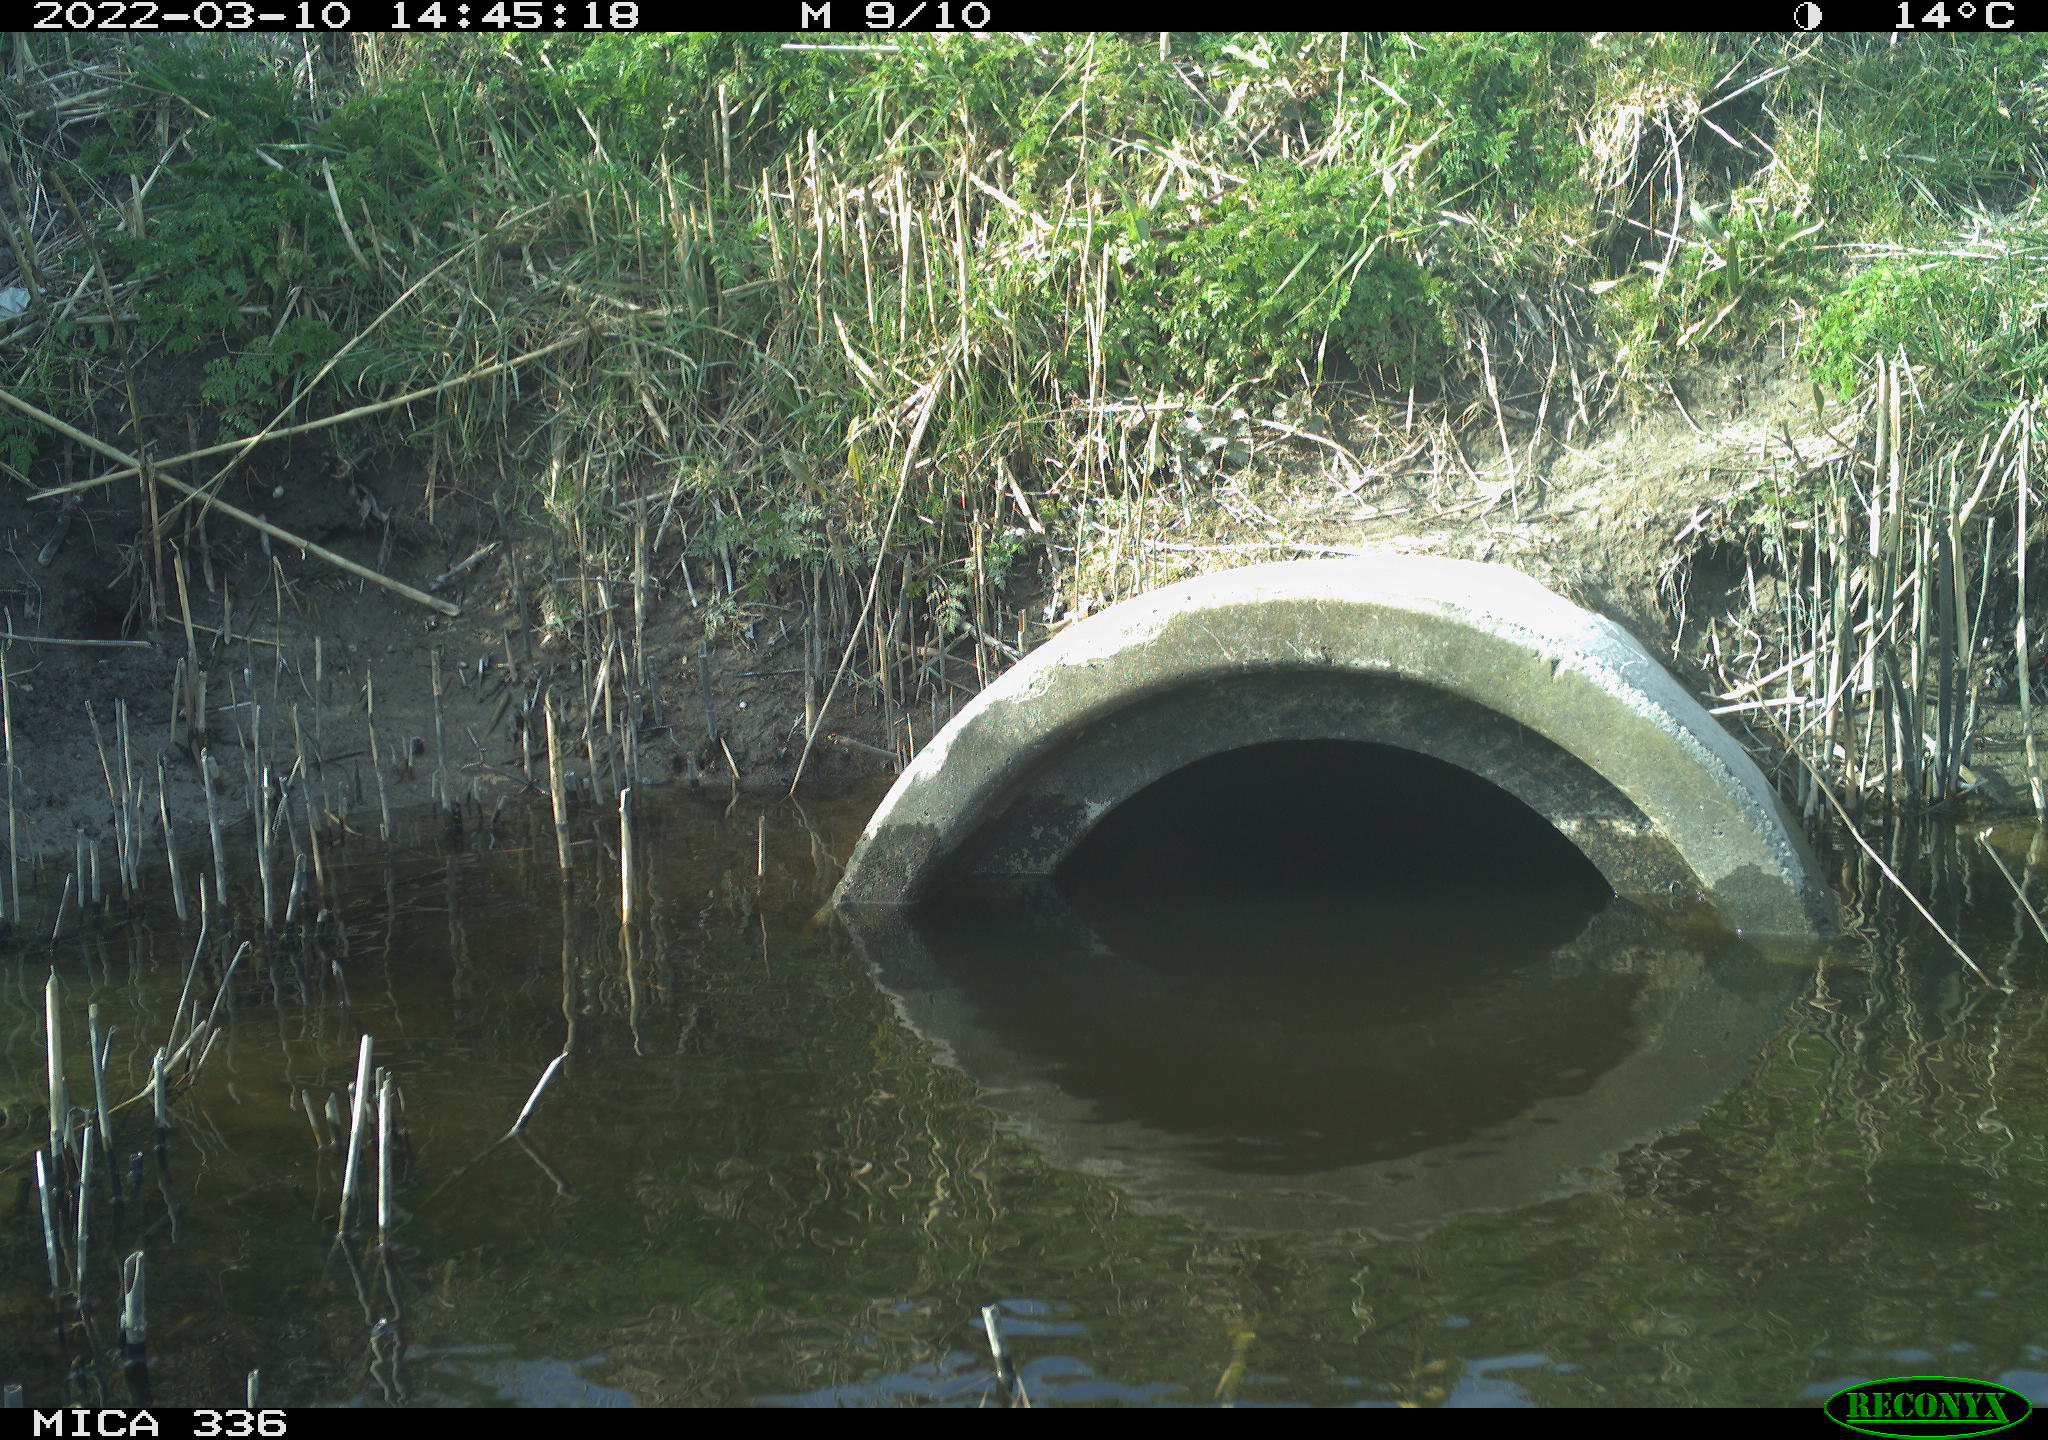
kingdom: Animalia
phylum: Chordata
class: Aves
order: Gruiformes
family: Rallidae
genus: Rallus
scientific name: Rallus aquaticus
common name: Water rail
